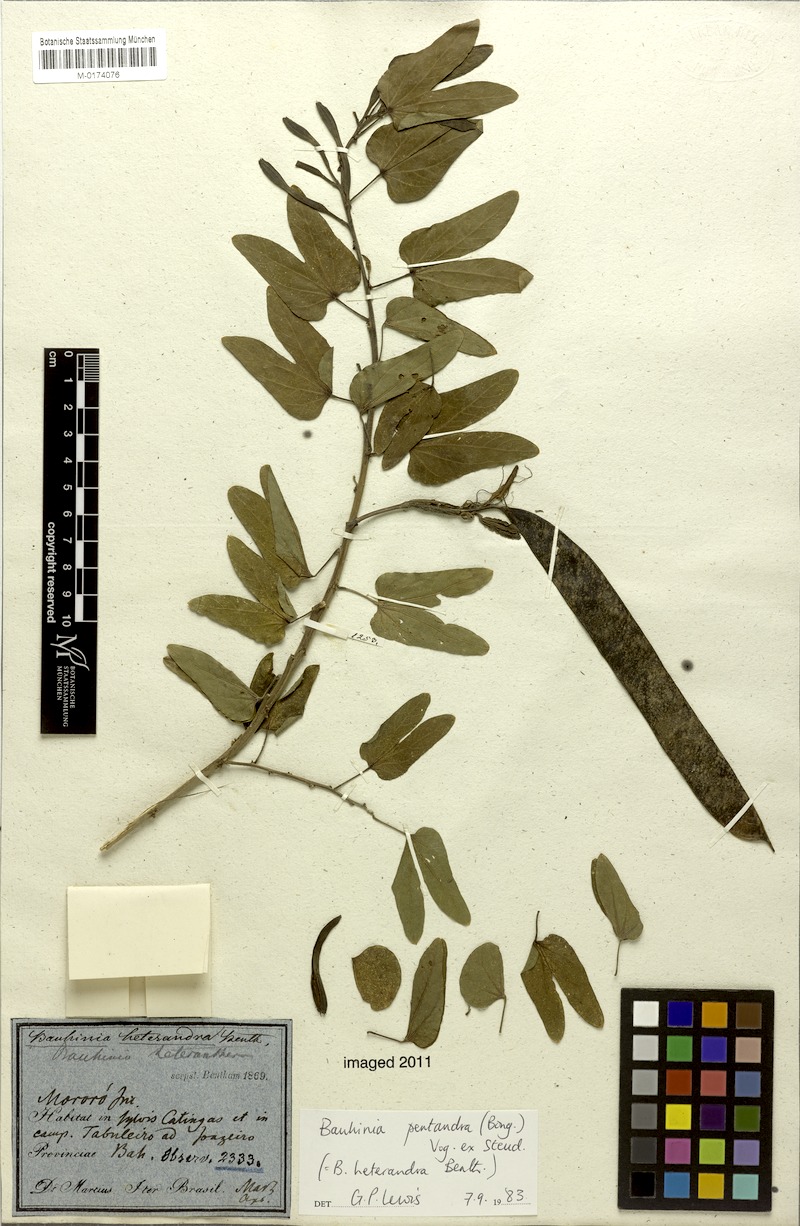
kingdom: Plantae
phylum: Tracheophyta
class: Magnoliopsida
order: Fabales
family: Fabaceae
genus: Bauhinia
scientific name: Bauhinia pentandra
